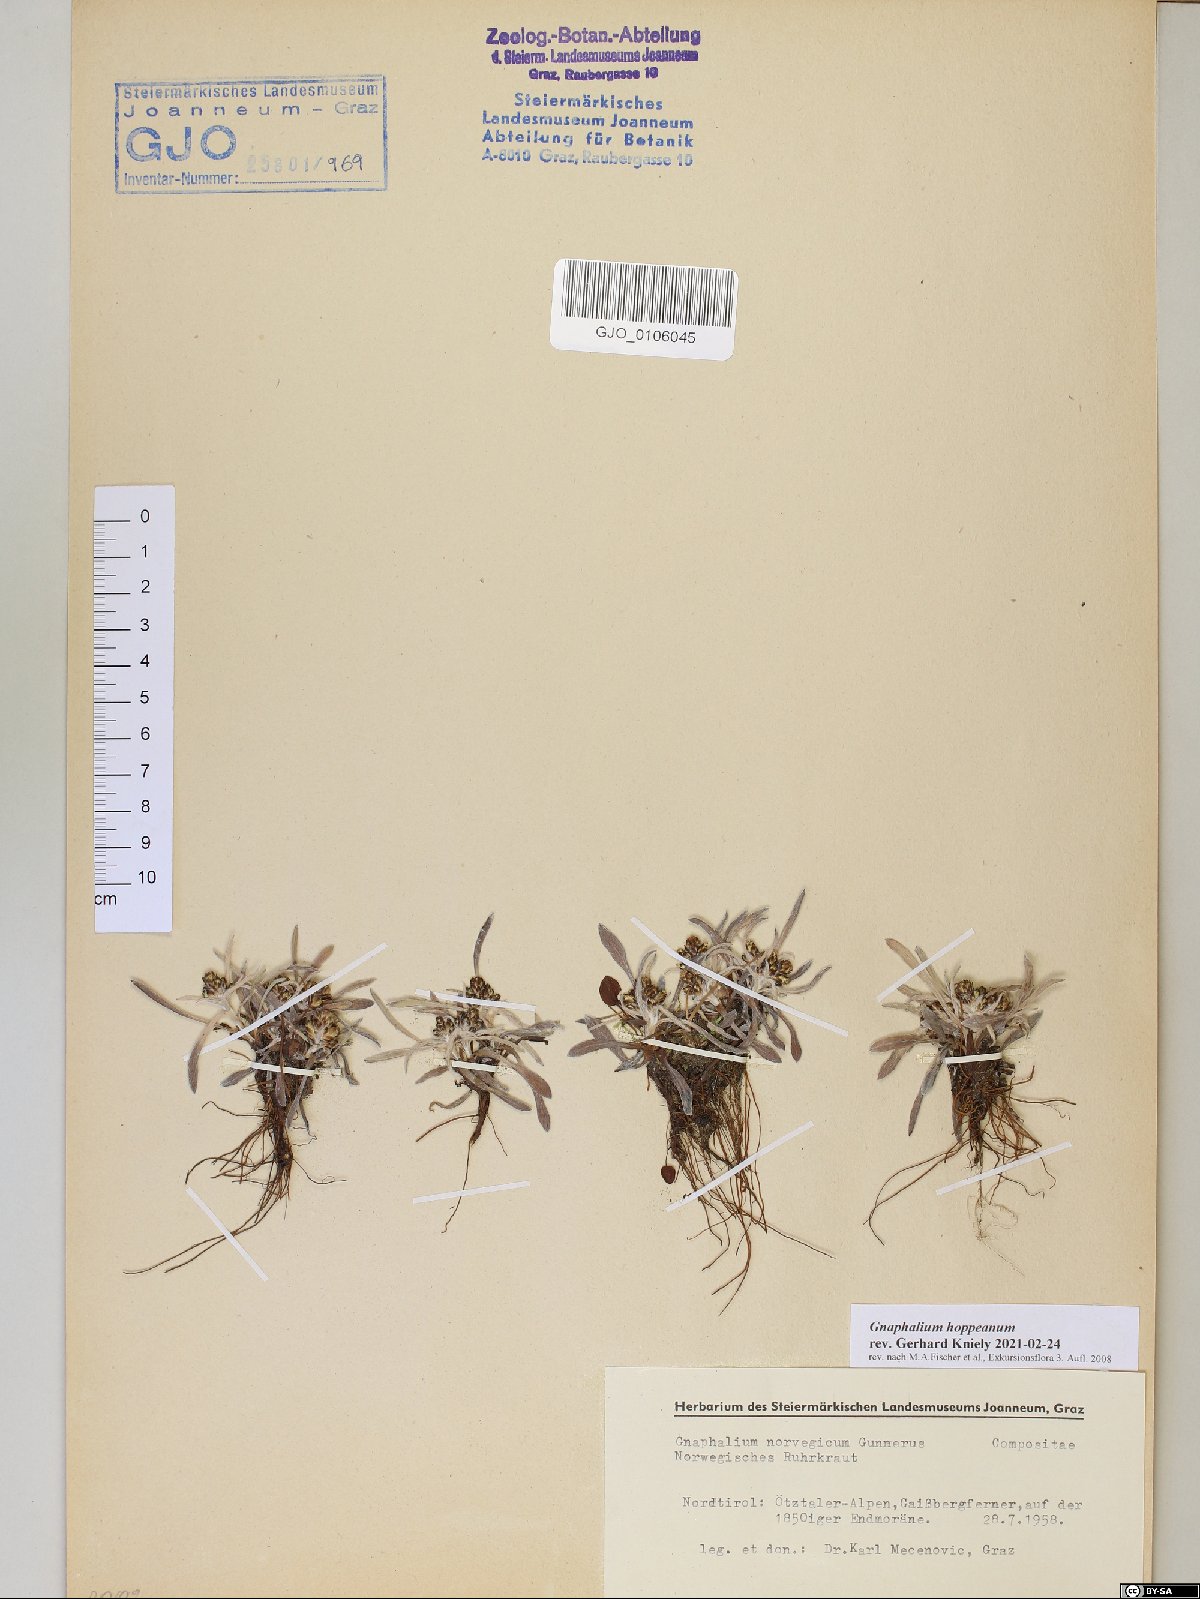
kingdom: Plantae
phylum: Tracheophyta
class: Magnoliopsida
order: Asterales
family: Asteraceae
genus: Omalotheca
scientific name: Omalotheca hoppeana
